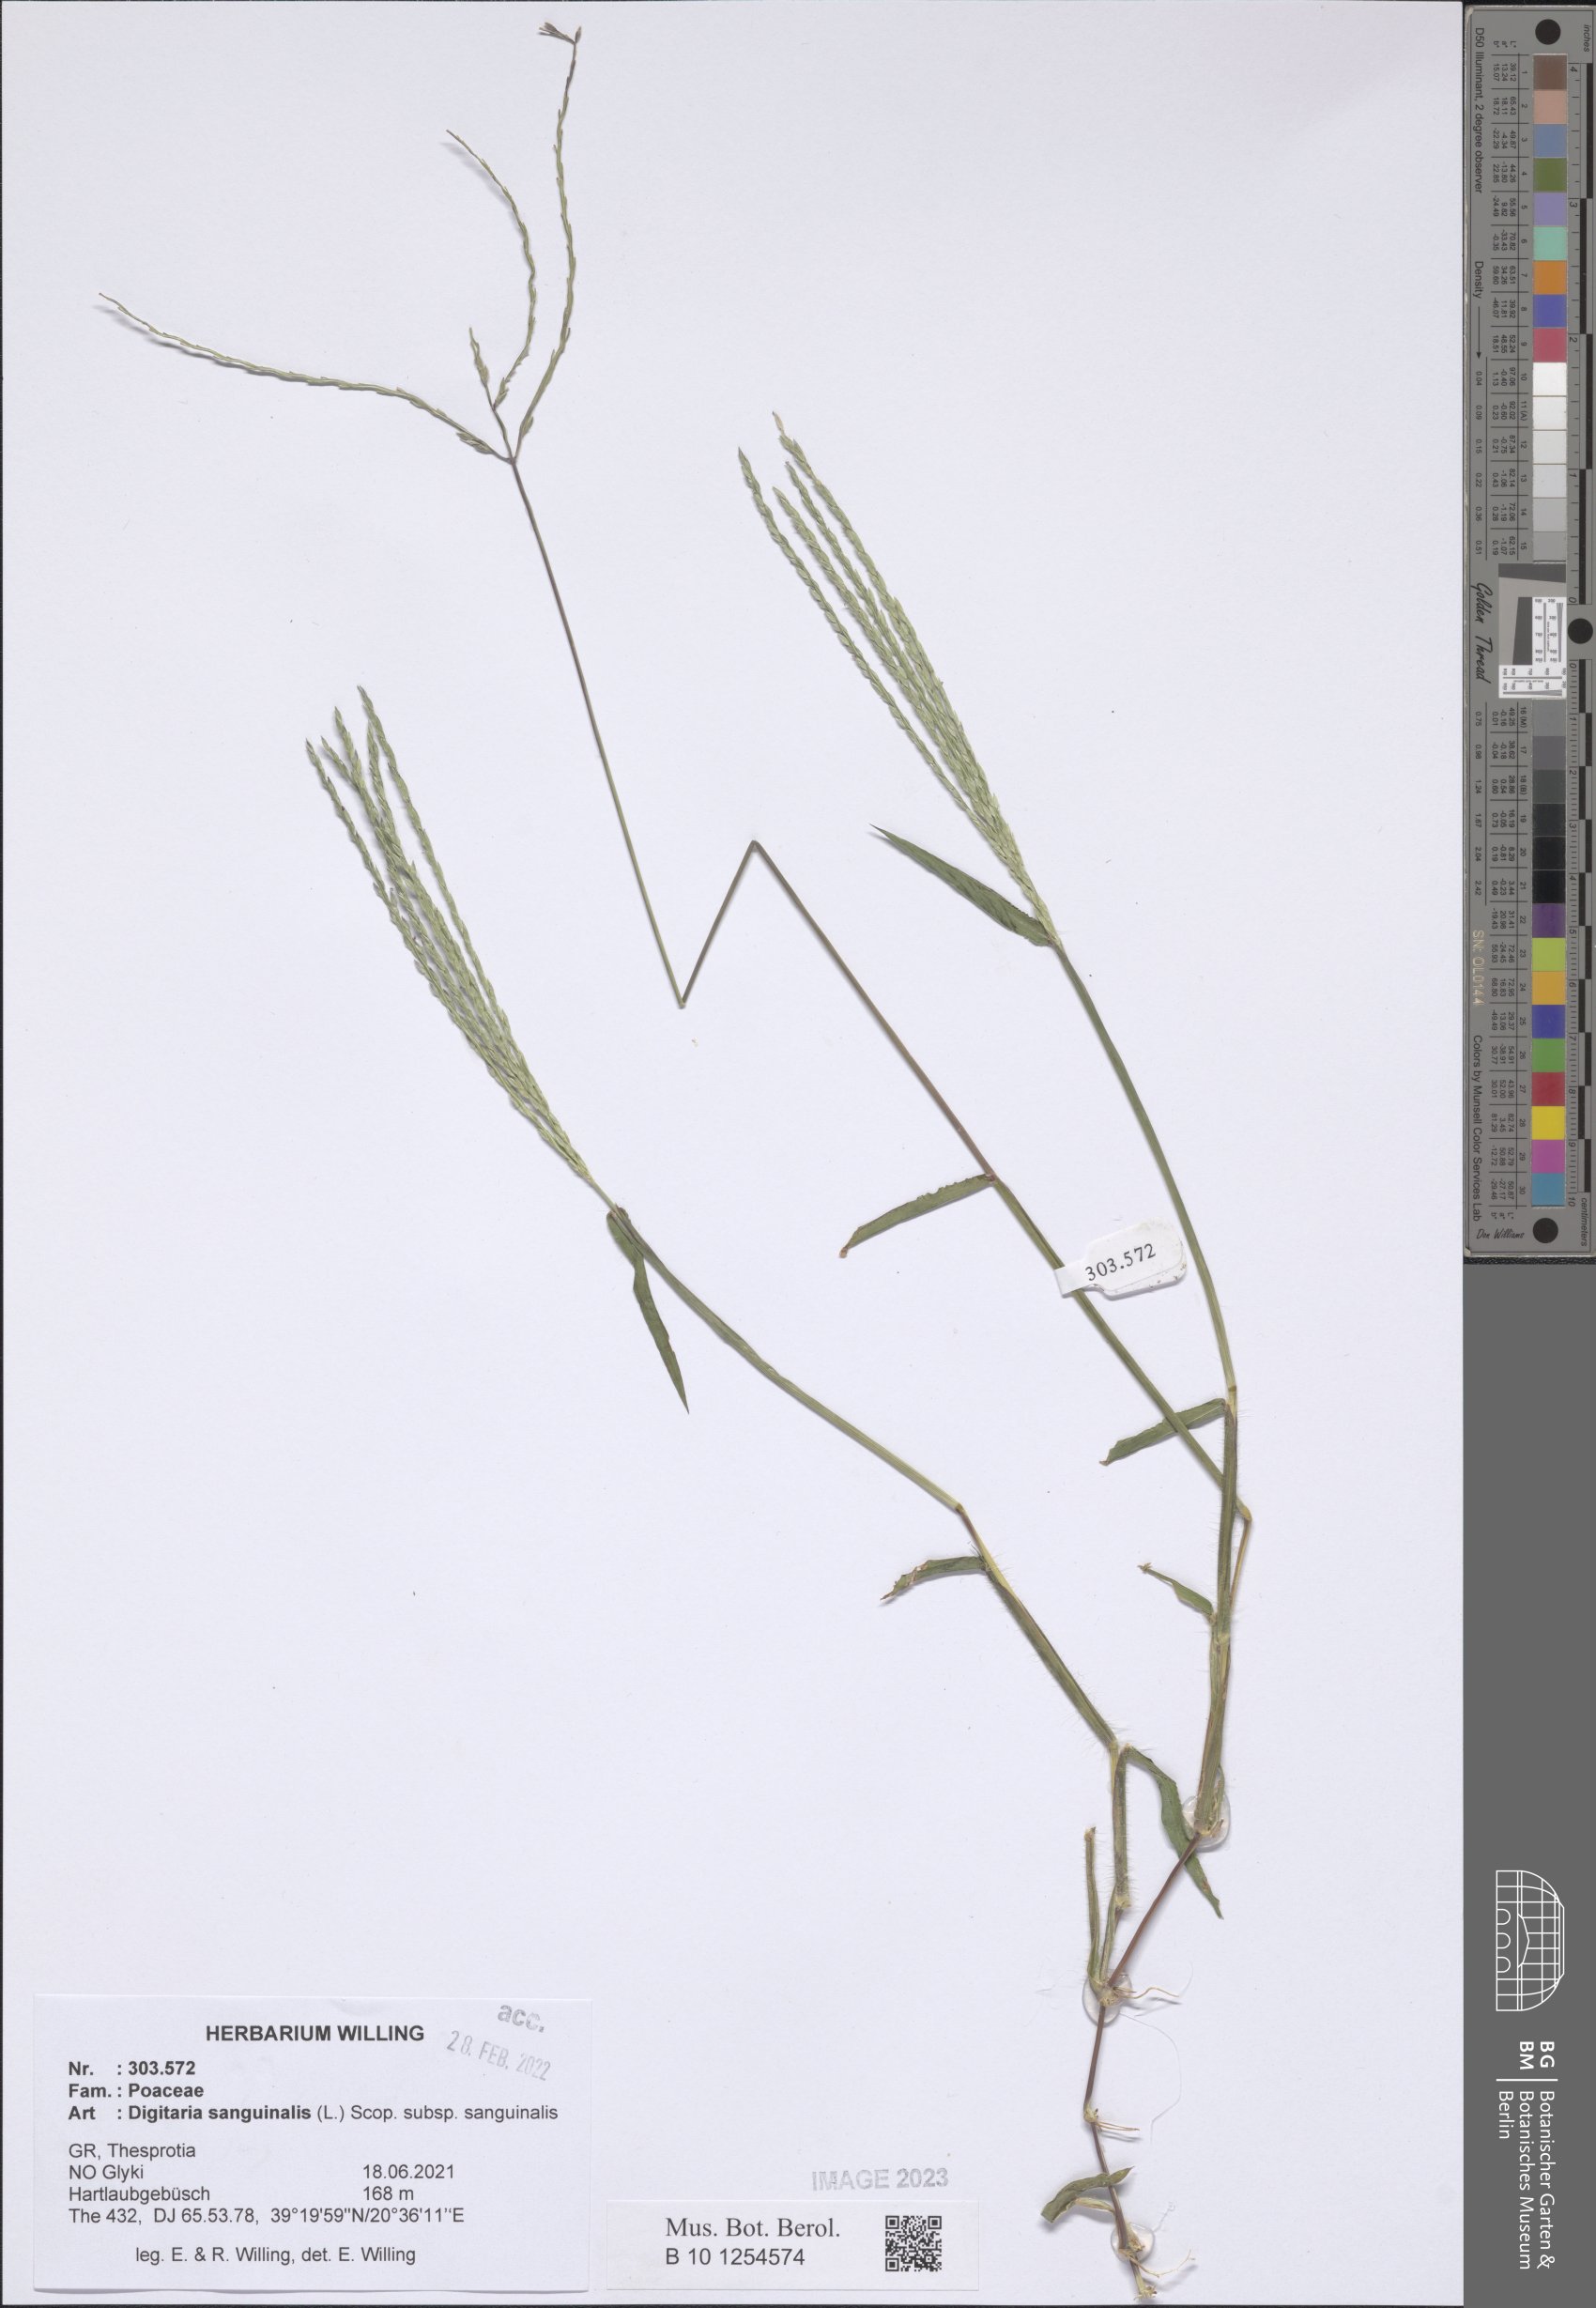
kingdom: Plantae
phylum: Tracheophyta
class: Liliopsida
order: Poales
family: Poaceae
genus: Digitaria
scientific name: Digitaria sanguinalis
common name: Hairy crabgrass
